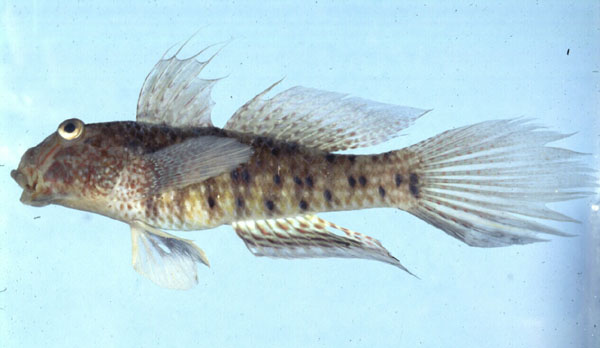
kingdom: Animalia
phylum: Chordata
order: Perciformes
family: Gobiidae
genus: Exyrias
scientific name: Exyrias belissimus
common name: Mud reef-goby
